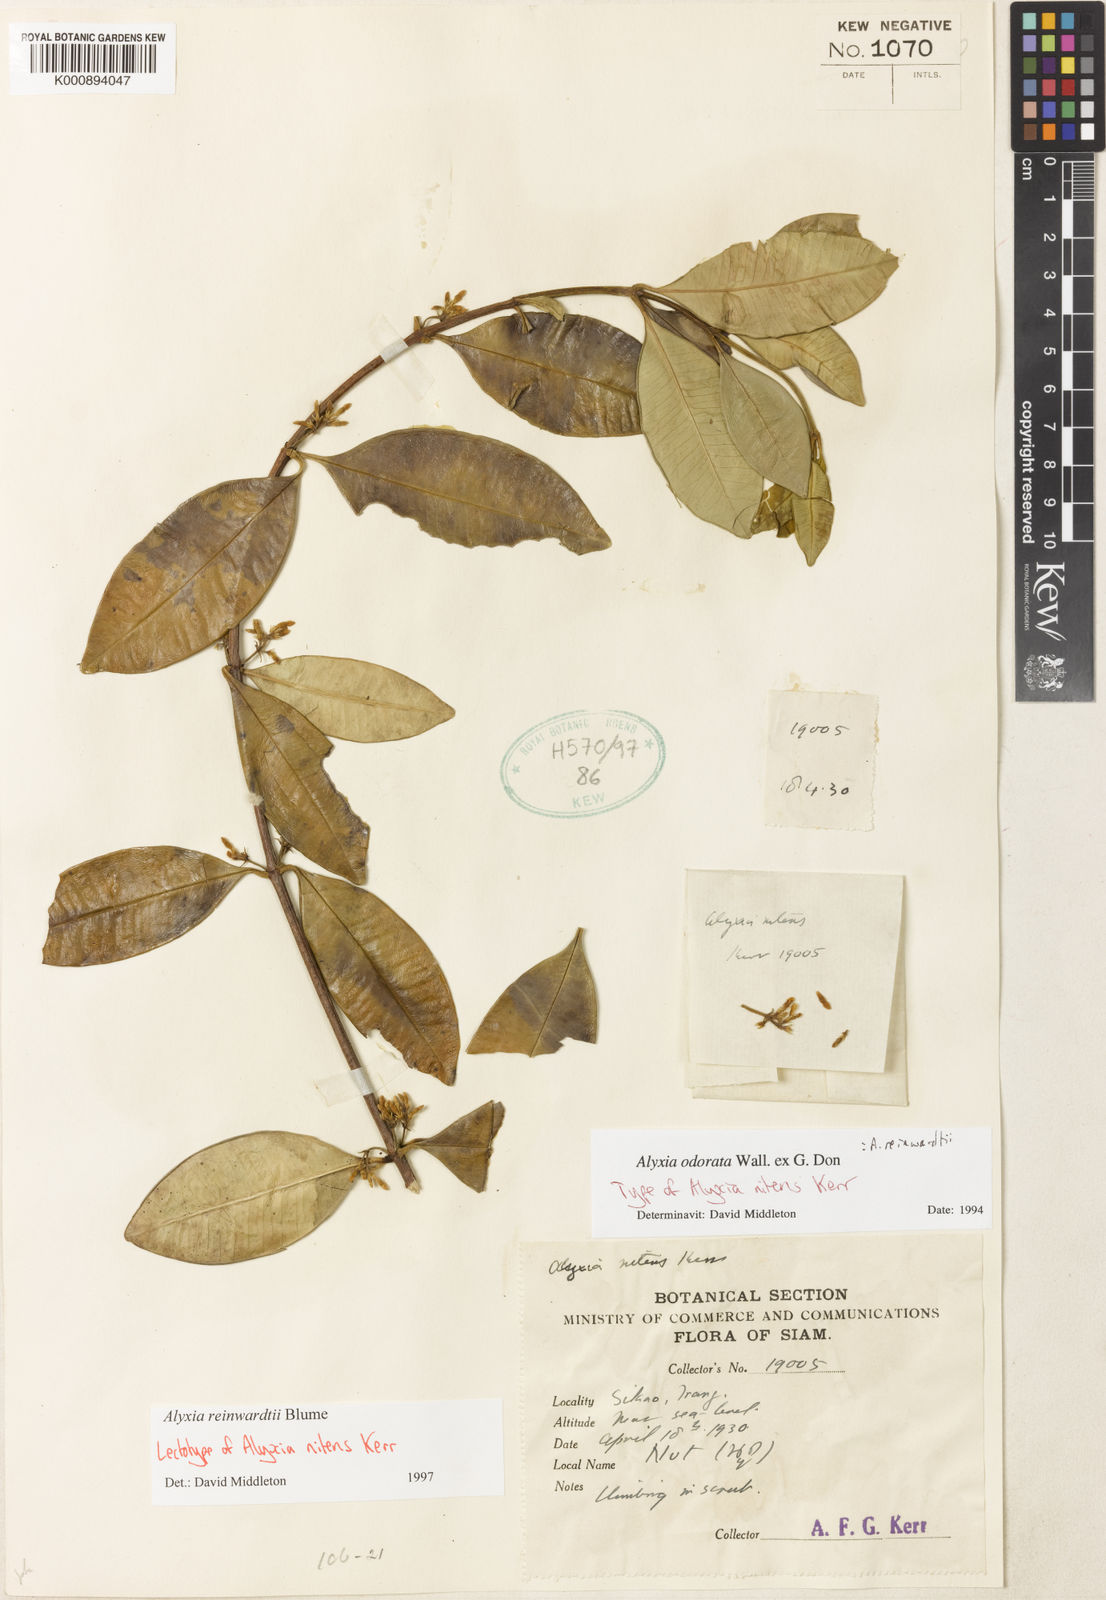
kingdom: Plantae
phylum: Tracheophyta
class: Magnoliopsida
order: Gentianales
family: Apocynaceae
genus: Alyxia
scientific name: Alyxia reinwardtii
